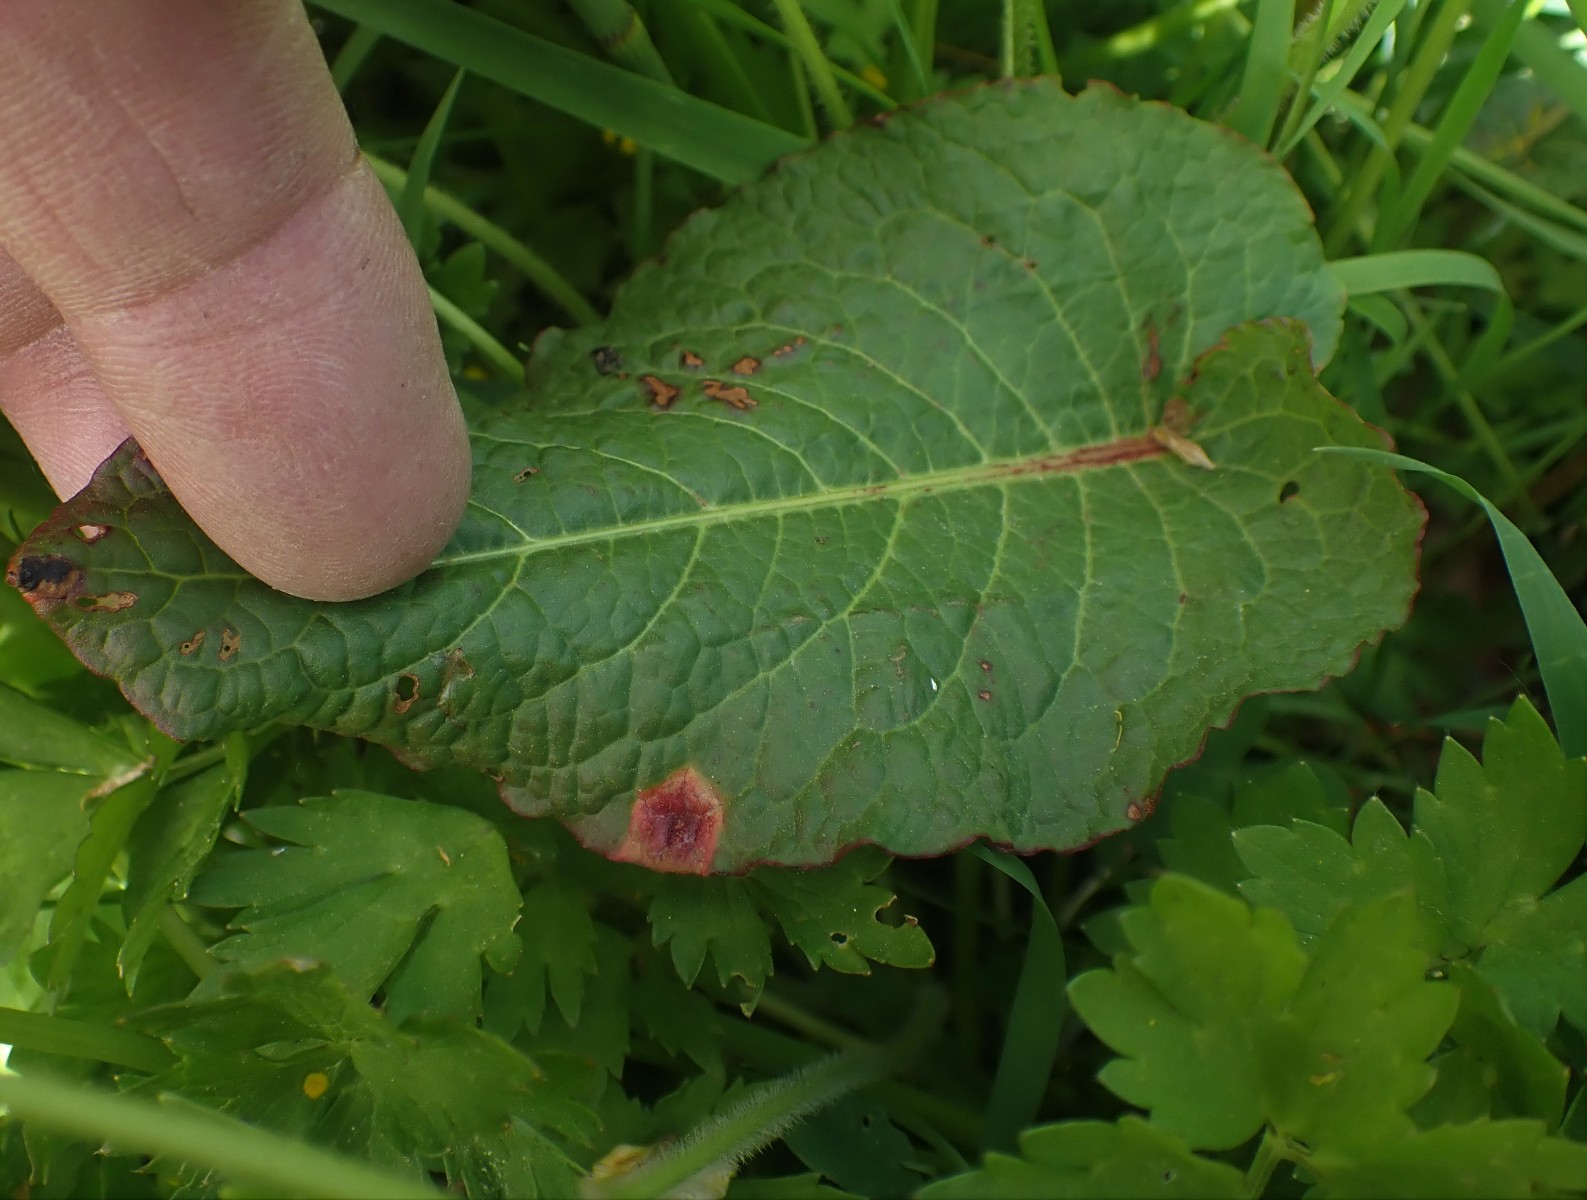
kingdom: Fungi
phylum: Basidiomycota
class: Pucciniomycetes
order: Pucciniales
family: Pucciniaceae
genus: Puccinia
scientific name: Puccinia phragmitis
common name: tagrør-tvecellerust
